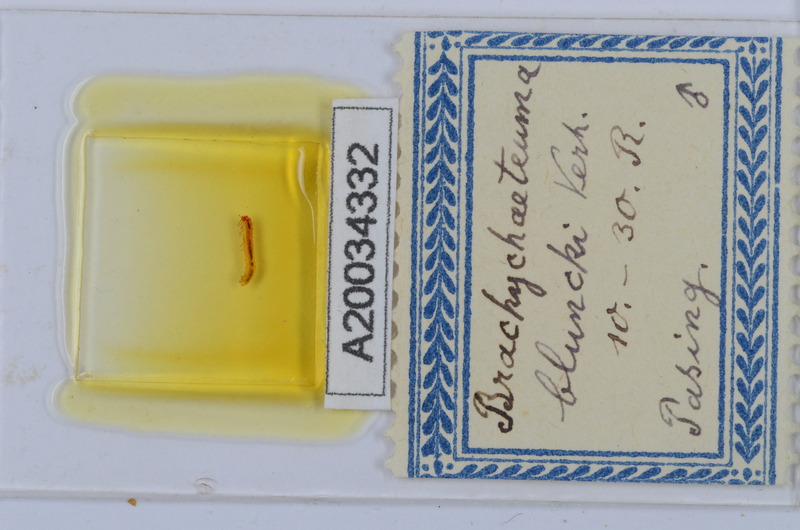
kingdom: Animalia
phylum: Arthropoda
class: Diplopoda
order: Chordeumatida
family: Brachychaeteumatidae
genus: Brachychaeteuma
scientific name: Brachychaeteuma bradeae
